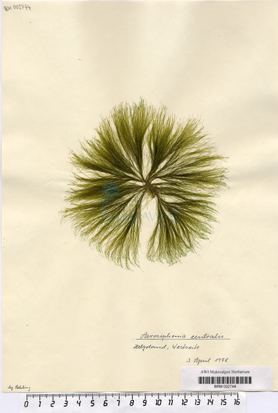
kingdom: Plantae
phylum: Chlorophyta
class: Ulvophyceae
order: Ulotrichales
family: Ulotrichaceae
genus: Acrosiphonia
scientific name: Acrosiphonia arcta
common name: Green tarantula weed
